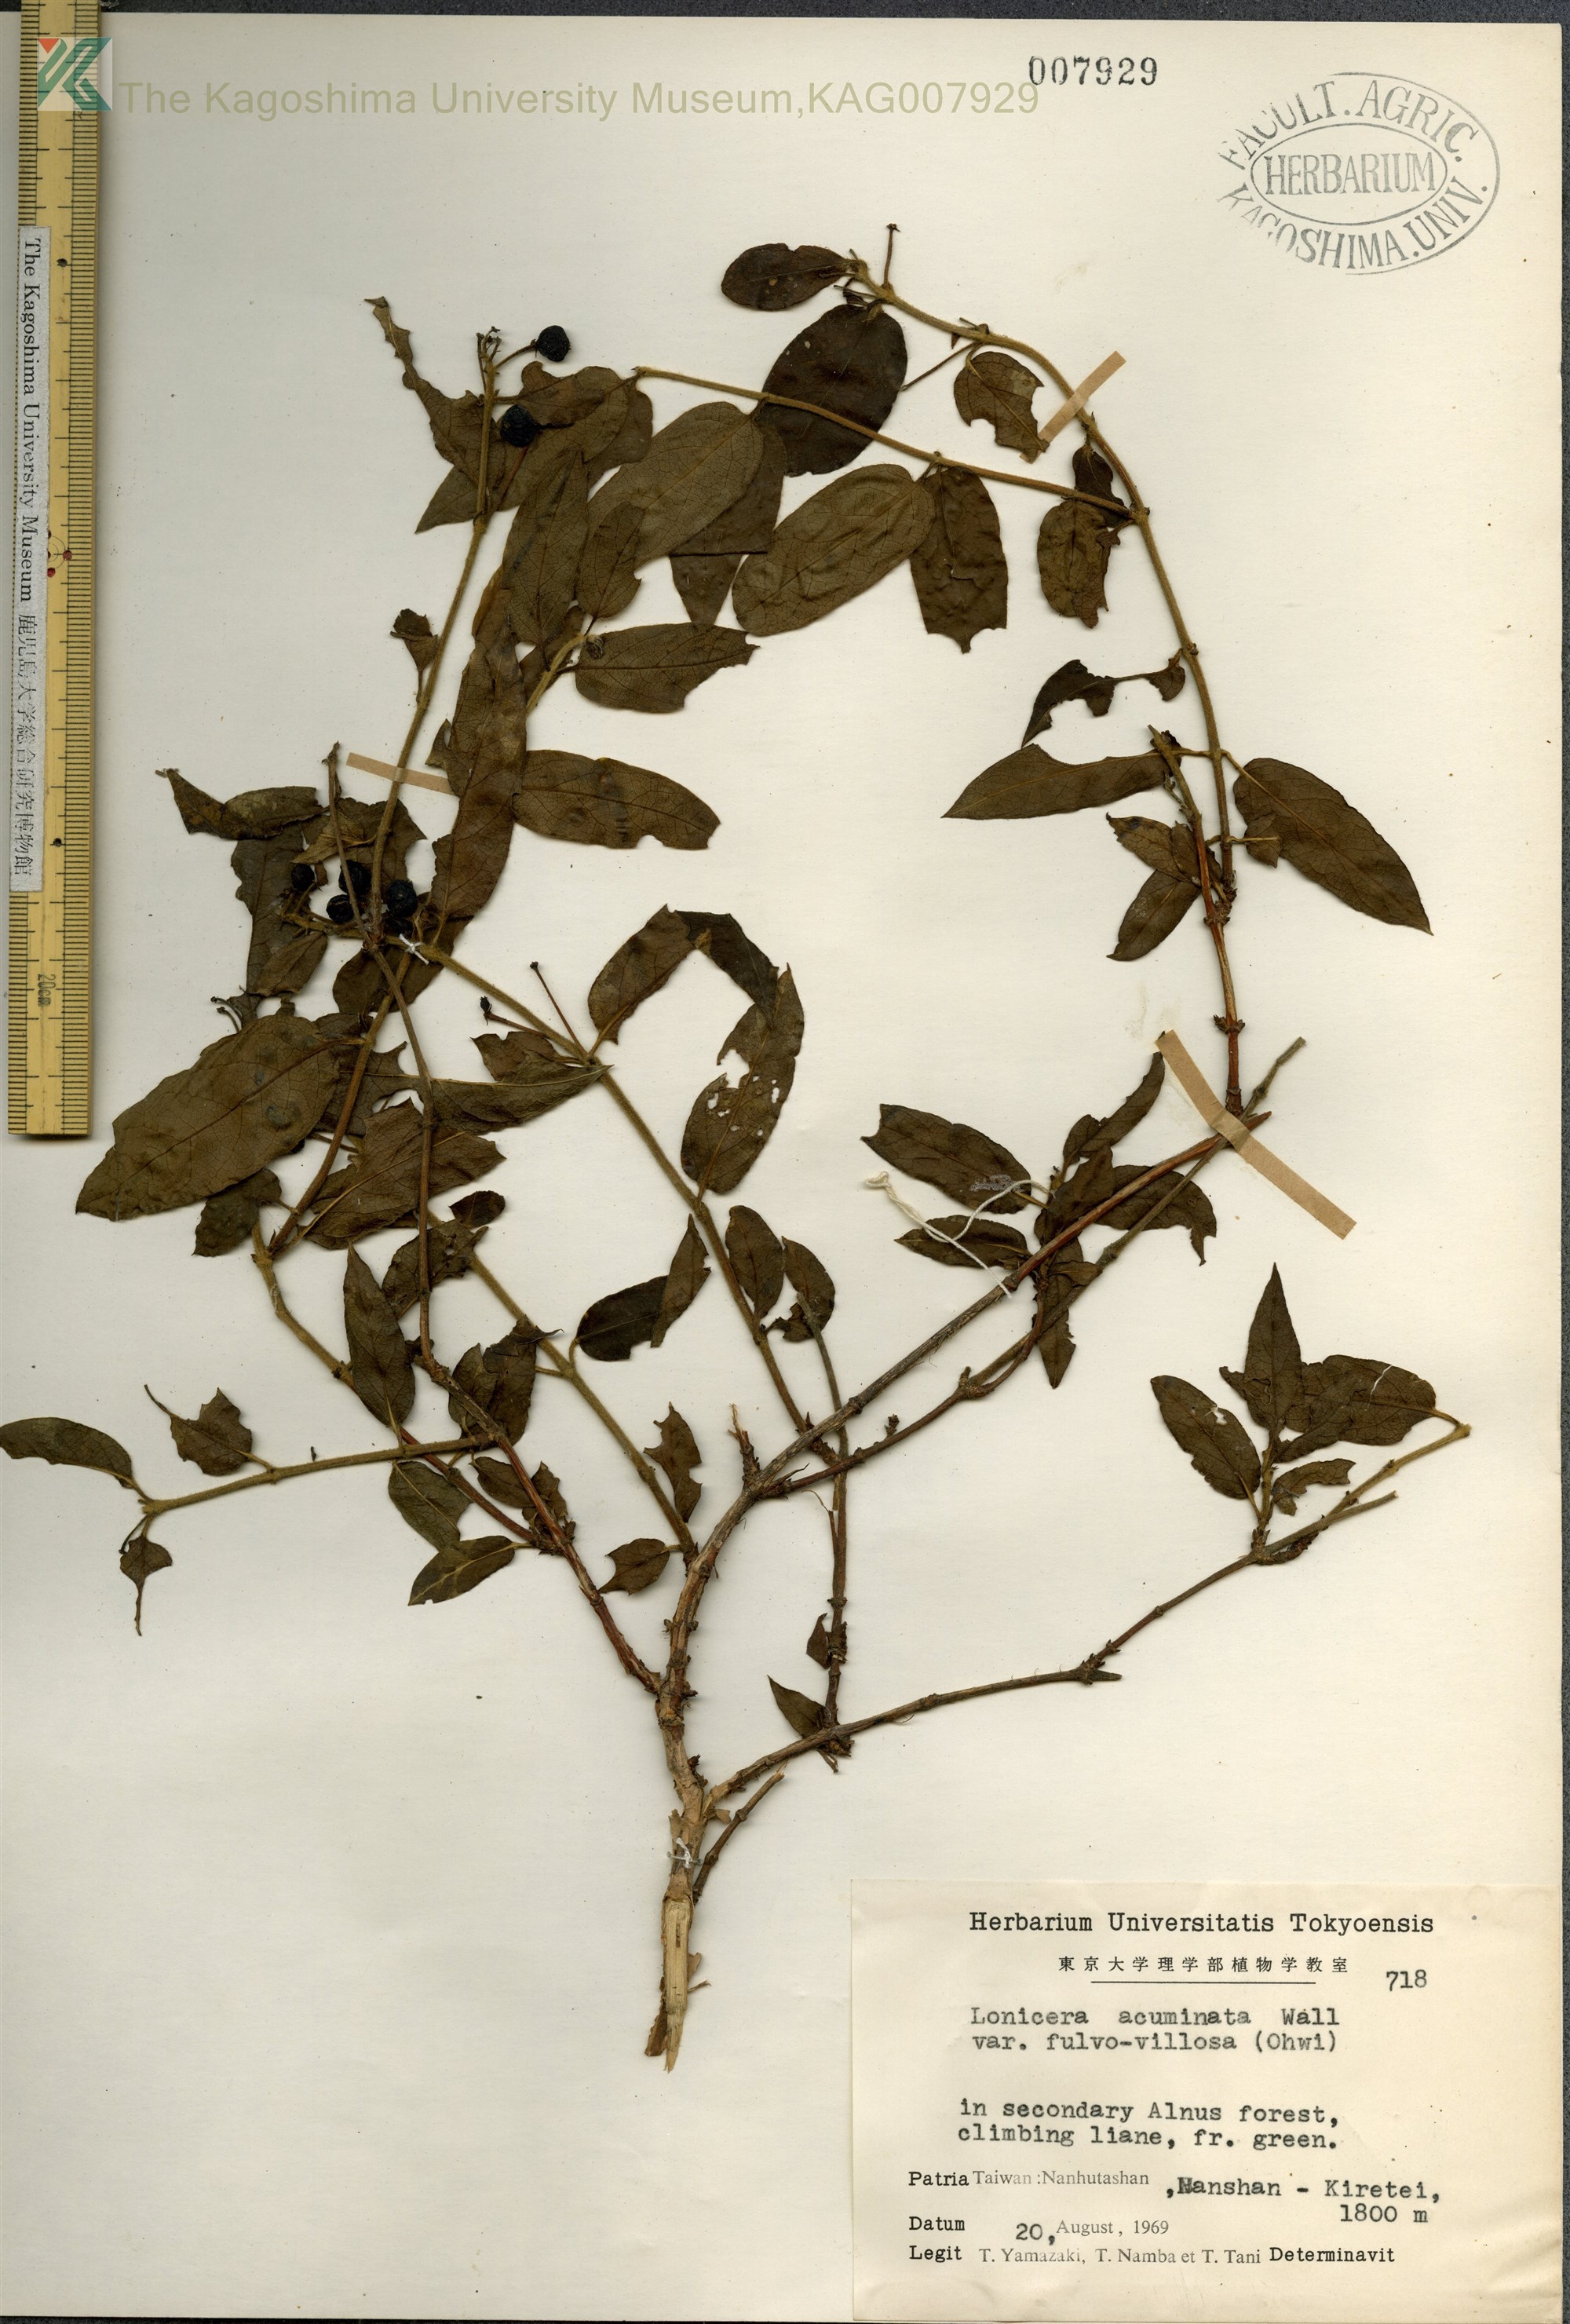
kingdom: Plantae
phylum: Tracheophyta
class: Magnoliopsida
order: Dipsacales
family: Caprifoliaceae
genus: Lonicera
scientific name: Lonicera acuminata
